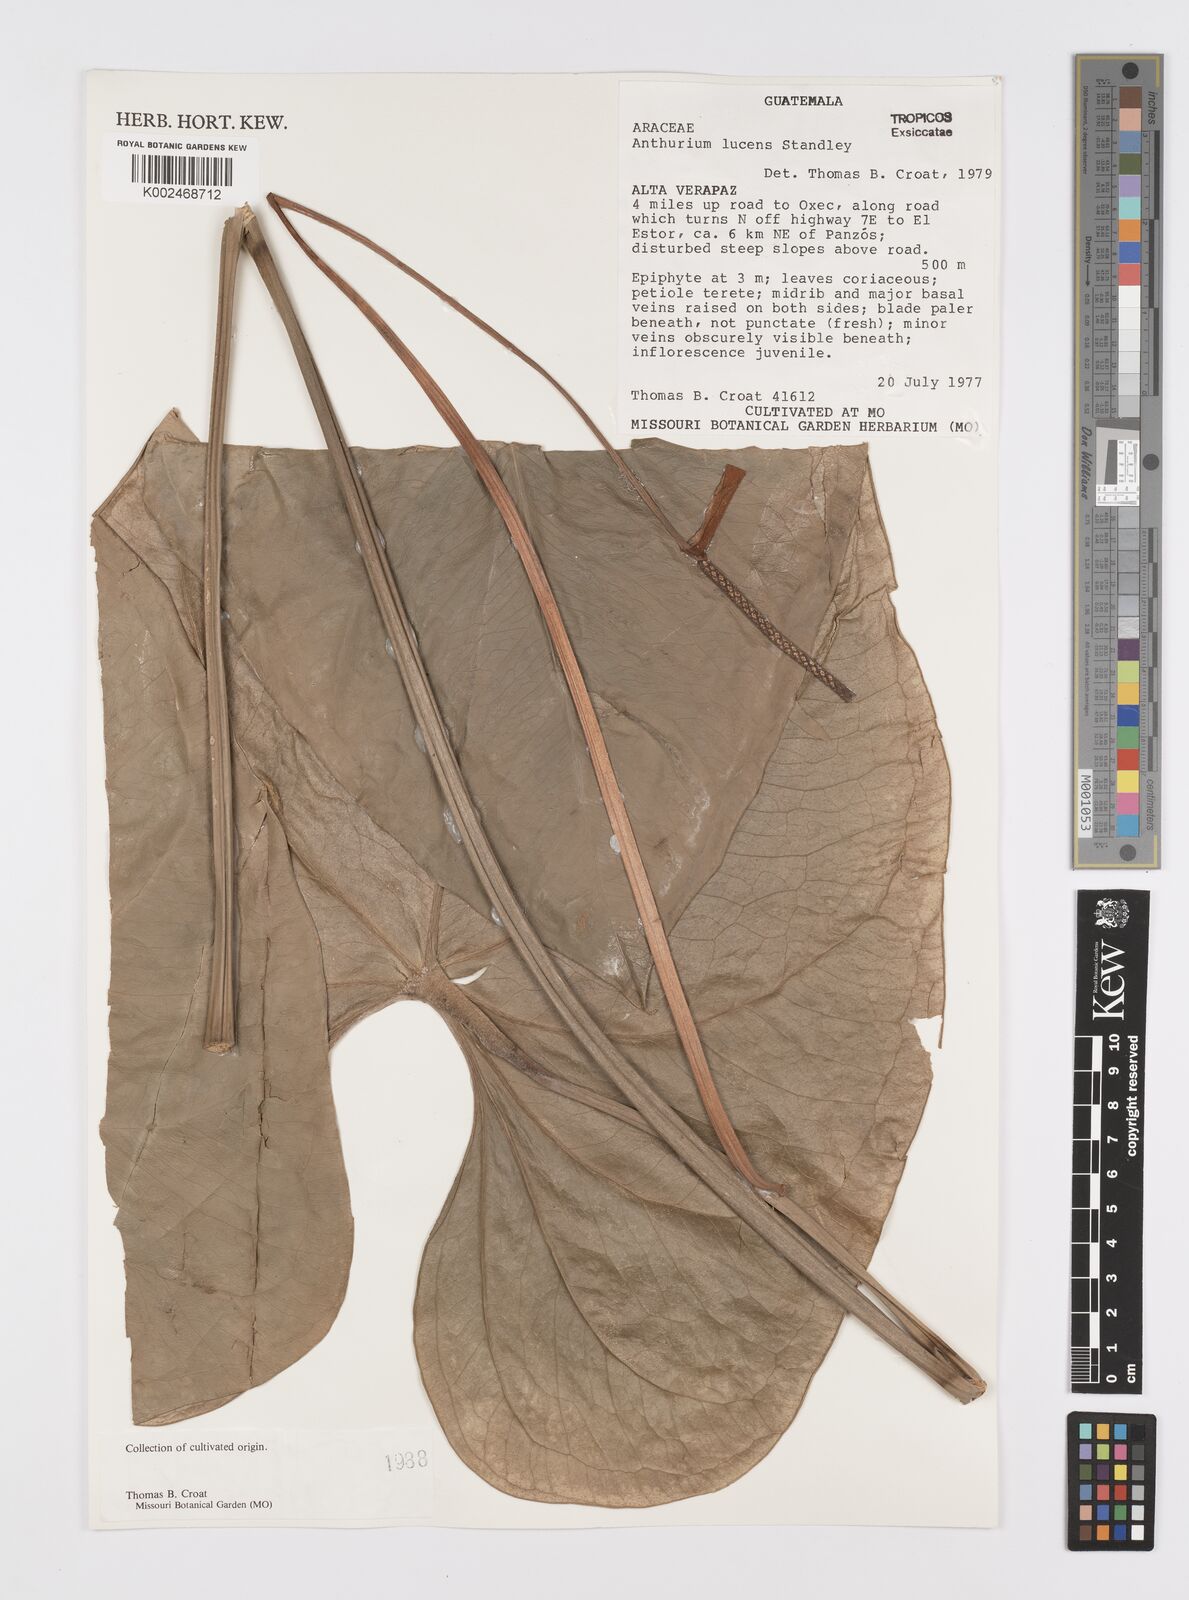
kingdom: Plantae
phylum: Tracheophyta
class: Liliopsida
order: Alismatales
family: Araceae
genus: Anthurium
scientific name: Anthurium lucens
